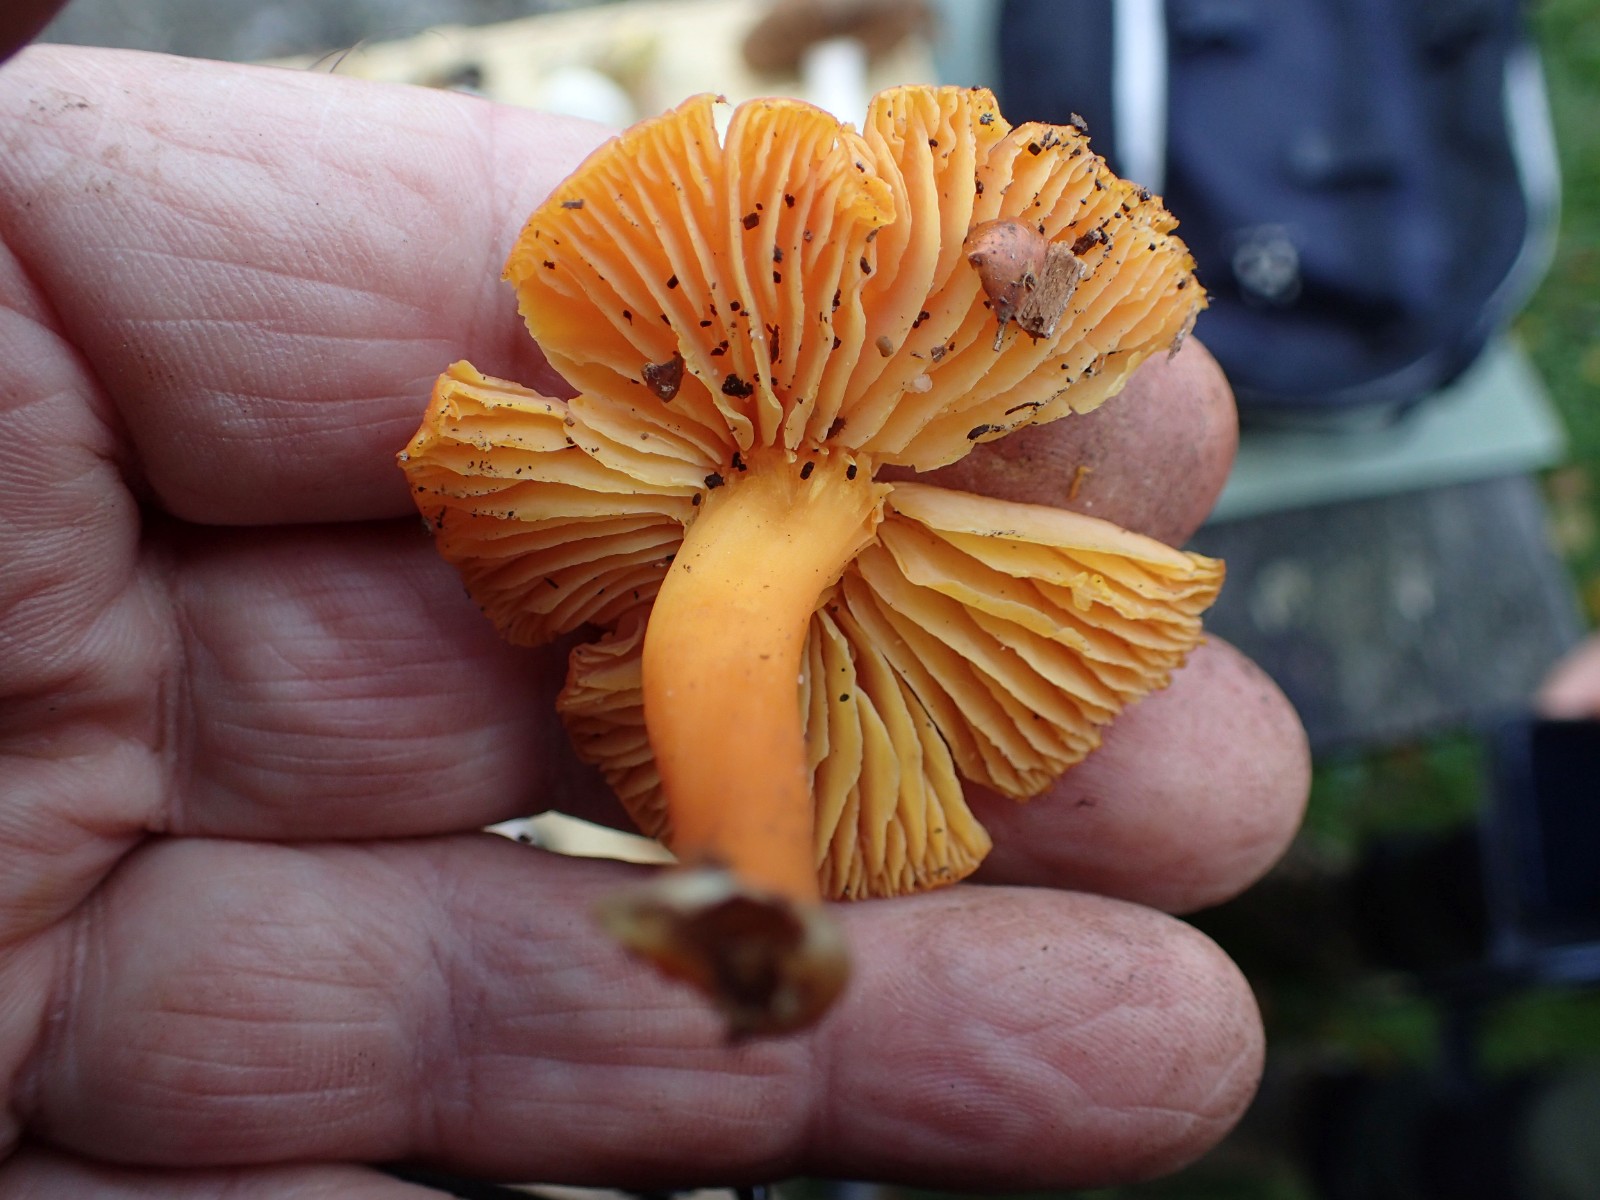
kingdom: Fungi
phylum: Basidiomycota
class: Agaricomycetes
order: Agaricales
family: Hygrophoraceae
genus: Hygrocybe
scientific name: Hygrocybe ceracea
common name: voksgul vokshat
